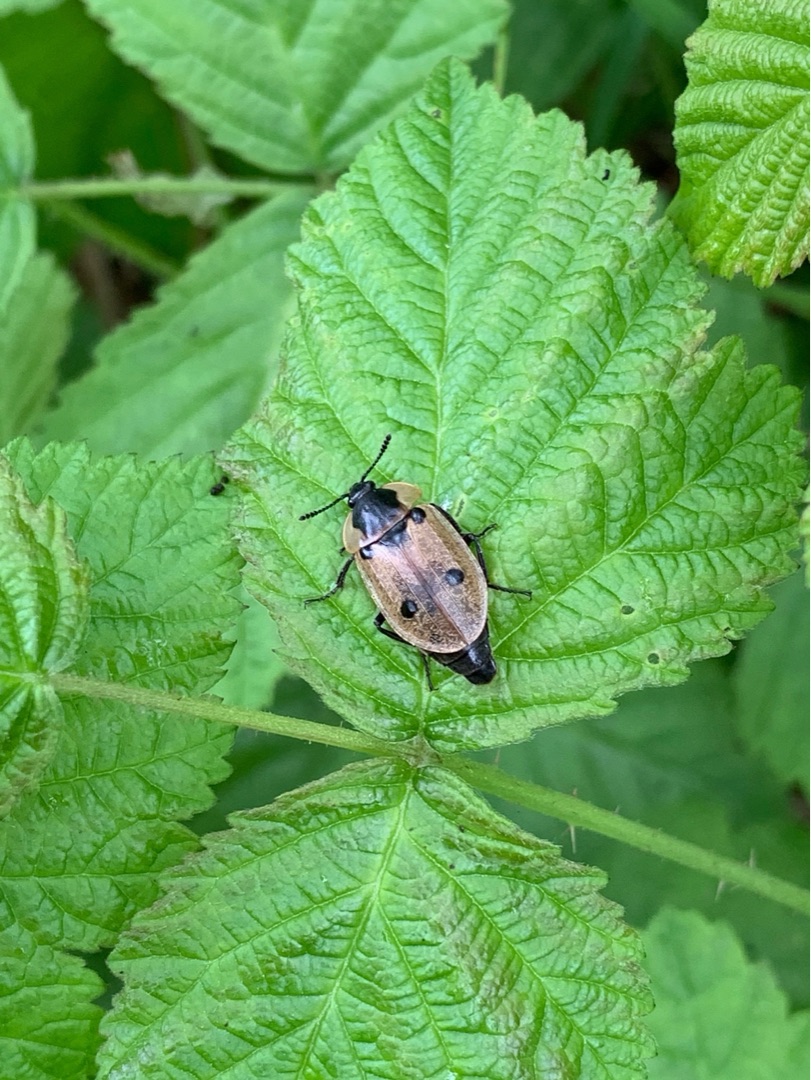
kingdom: Animalia
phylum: Arthropoda
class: Insecta
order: Coleoptera
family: Staphylinidae
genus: Dendroxena
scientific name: Dendroxena quadrimaculata
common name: Fireplettet ådselbille
